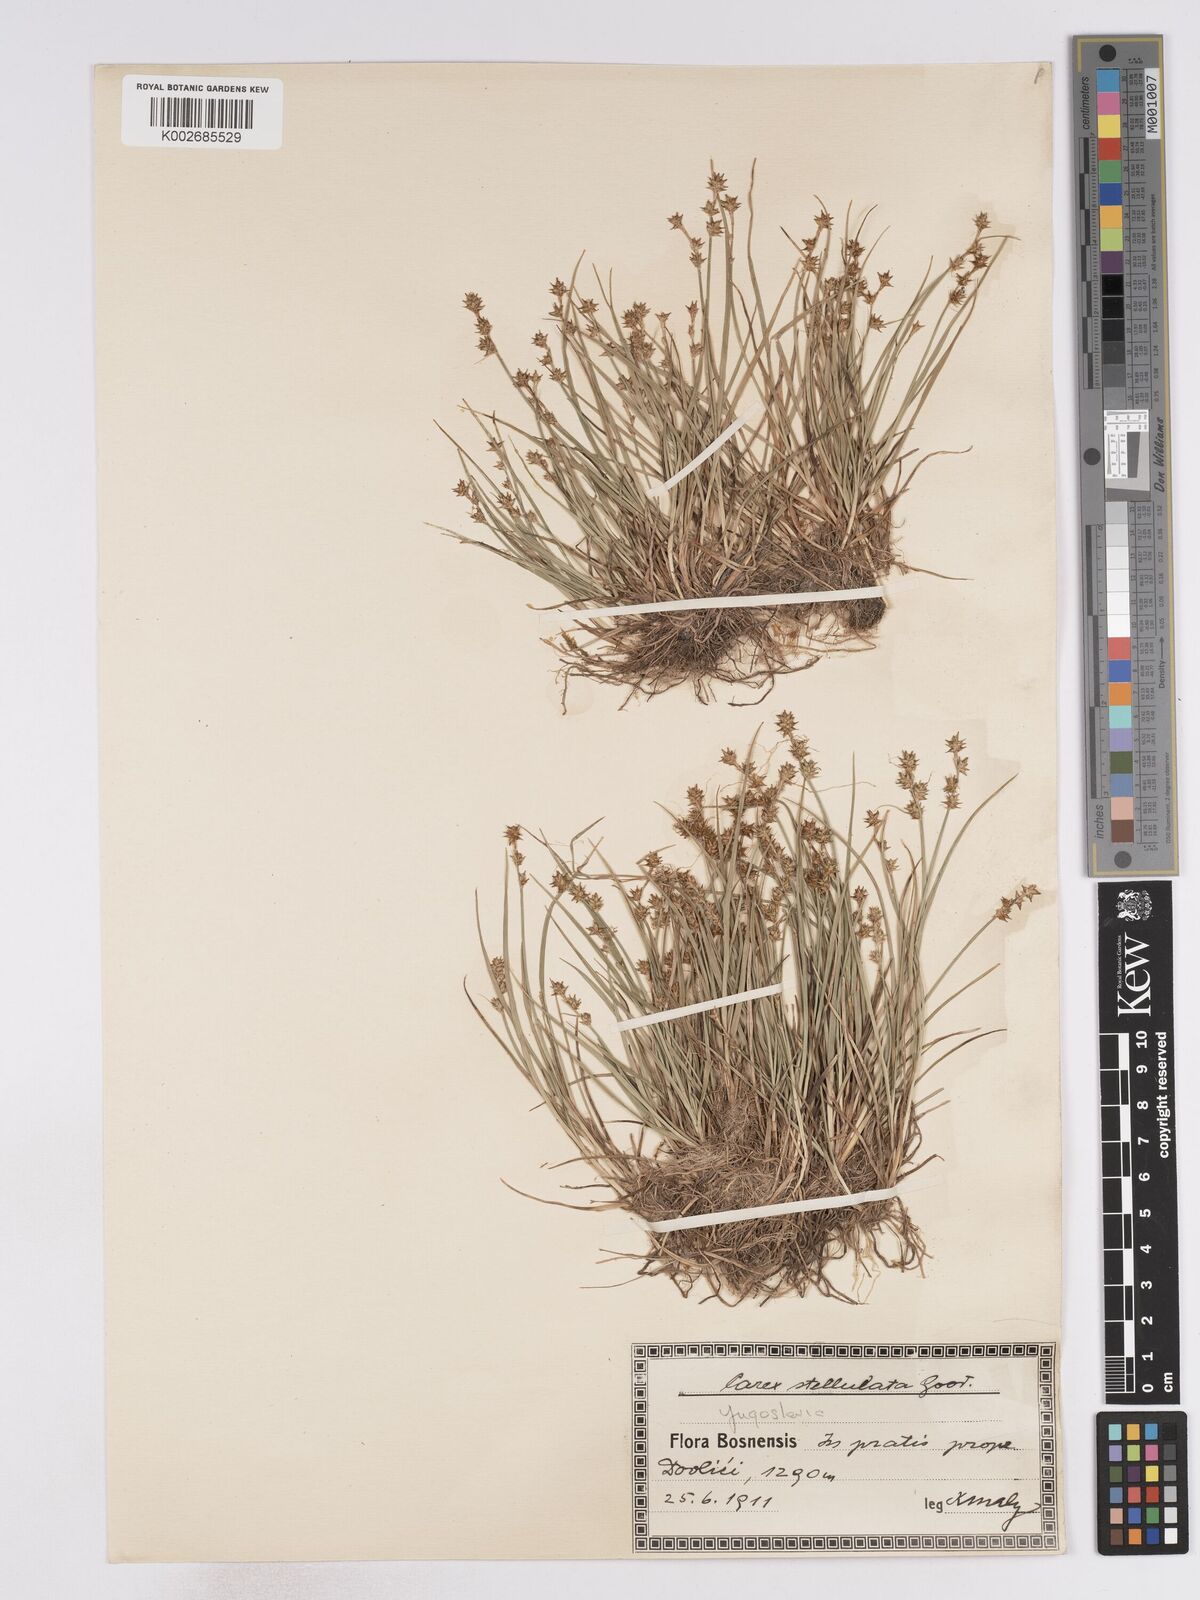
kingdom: Plantae
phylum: Tracheophyta
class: Liliopsida
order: Poales
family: Cyperaceae
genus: Carex
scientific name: Carex echinata
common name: Star sedge
